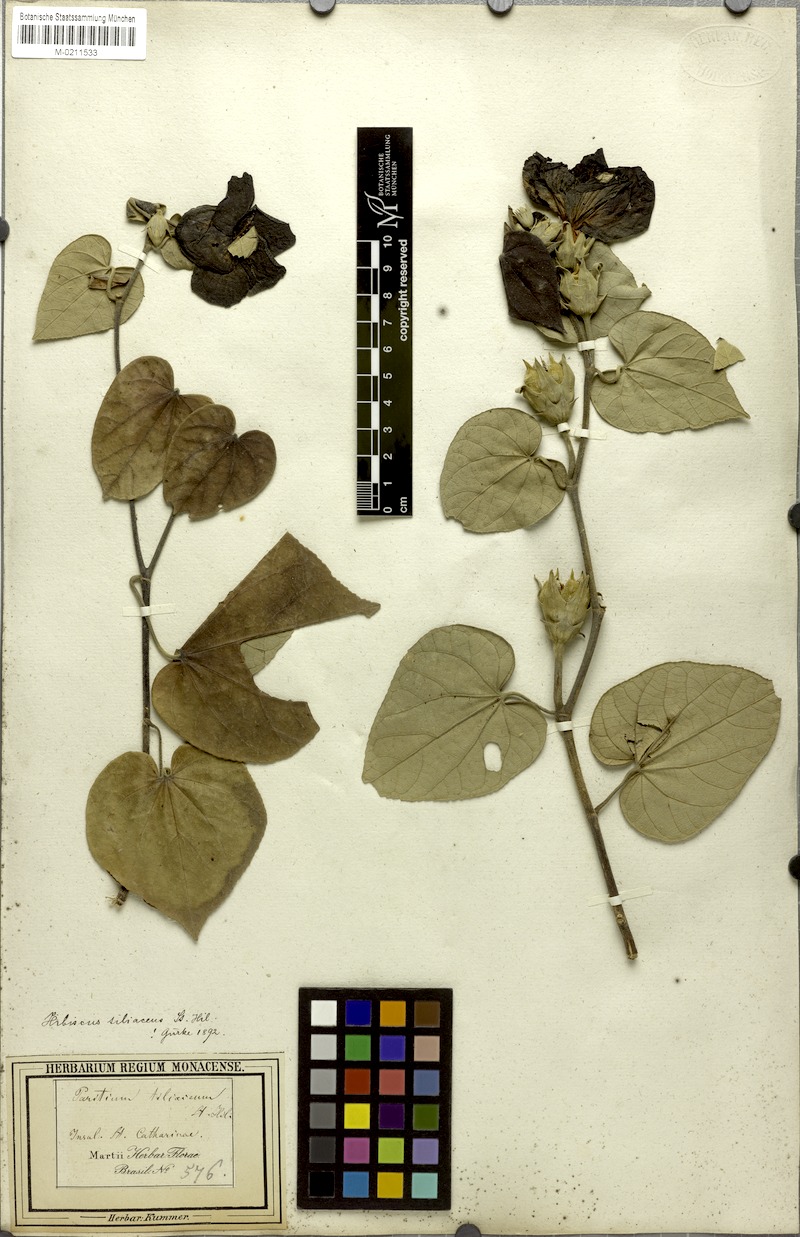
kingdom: Plantae
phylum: Tracheophyta
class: Magnoliopsida
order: Malvales
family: Malvaceae
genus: Talipariti
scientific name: Talipariti tiliaceum
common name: Sea hibiscus
